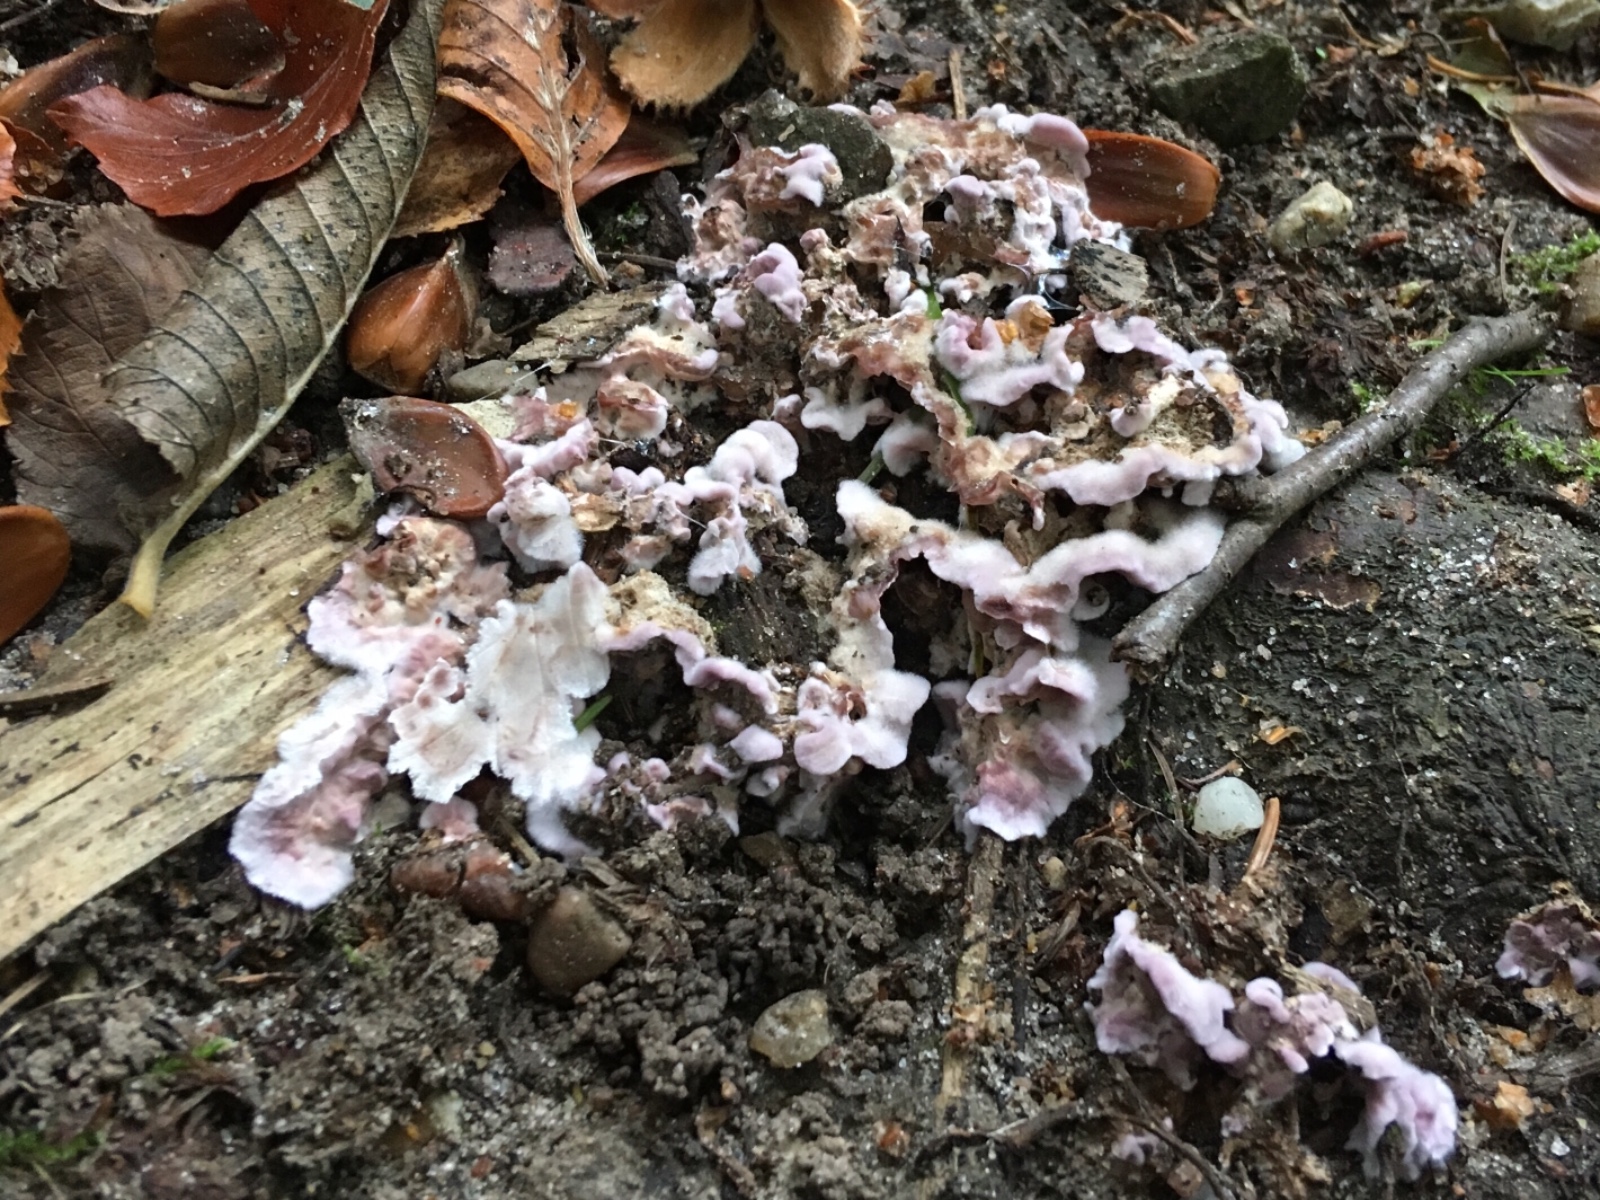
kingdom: Fungi
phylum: Basidiomycota
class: Agaricomycetes
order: Agaricales
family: Cyphellaceae
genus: Chondrostereum
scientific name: Chondrostereum purpureum
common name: purpurlædersvamp
